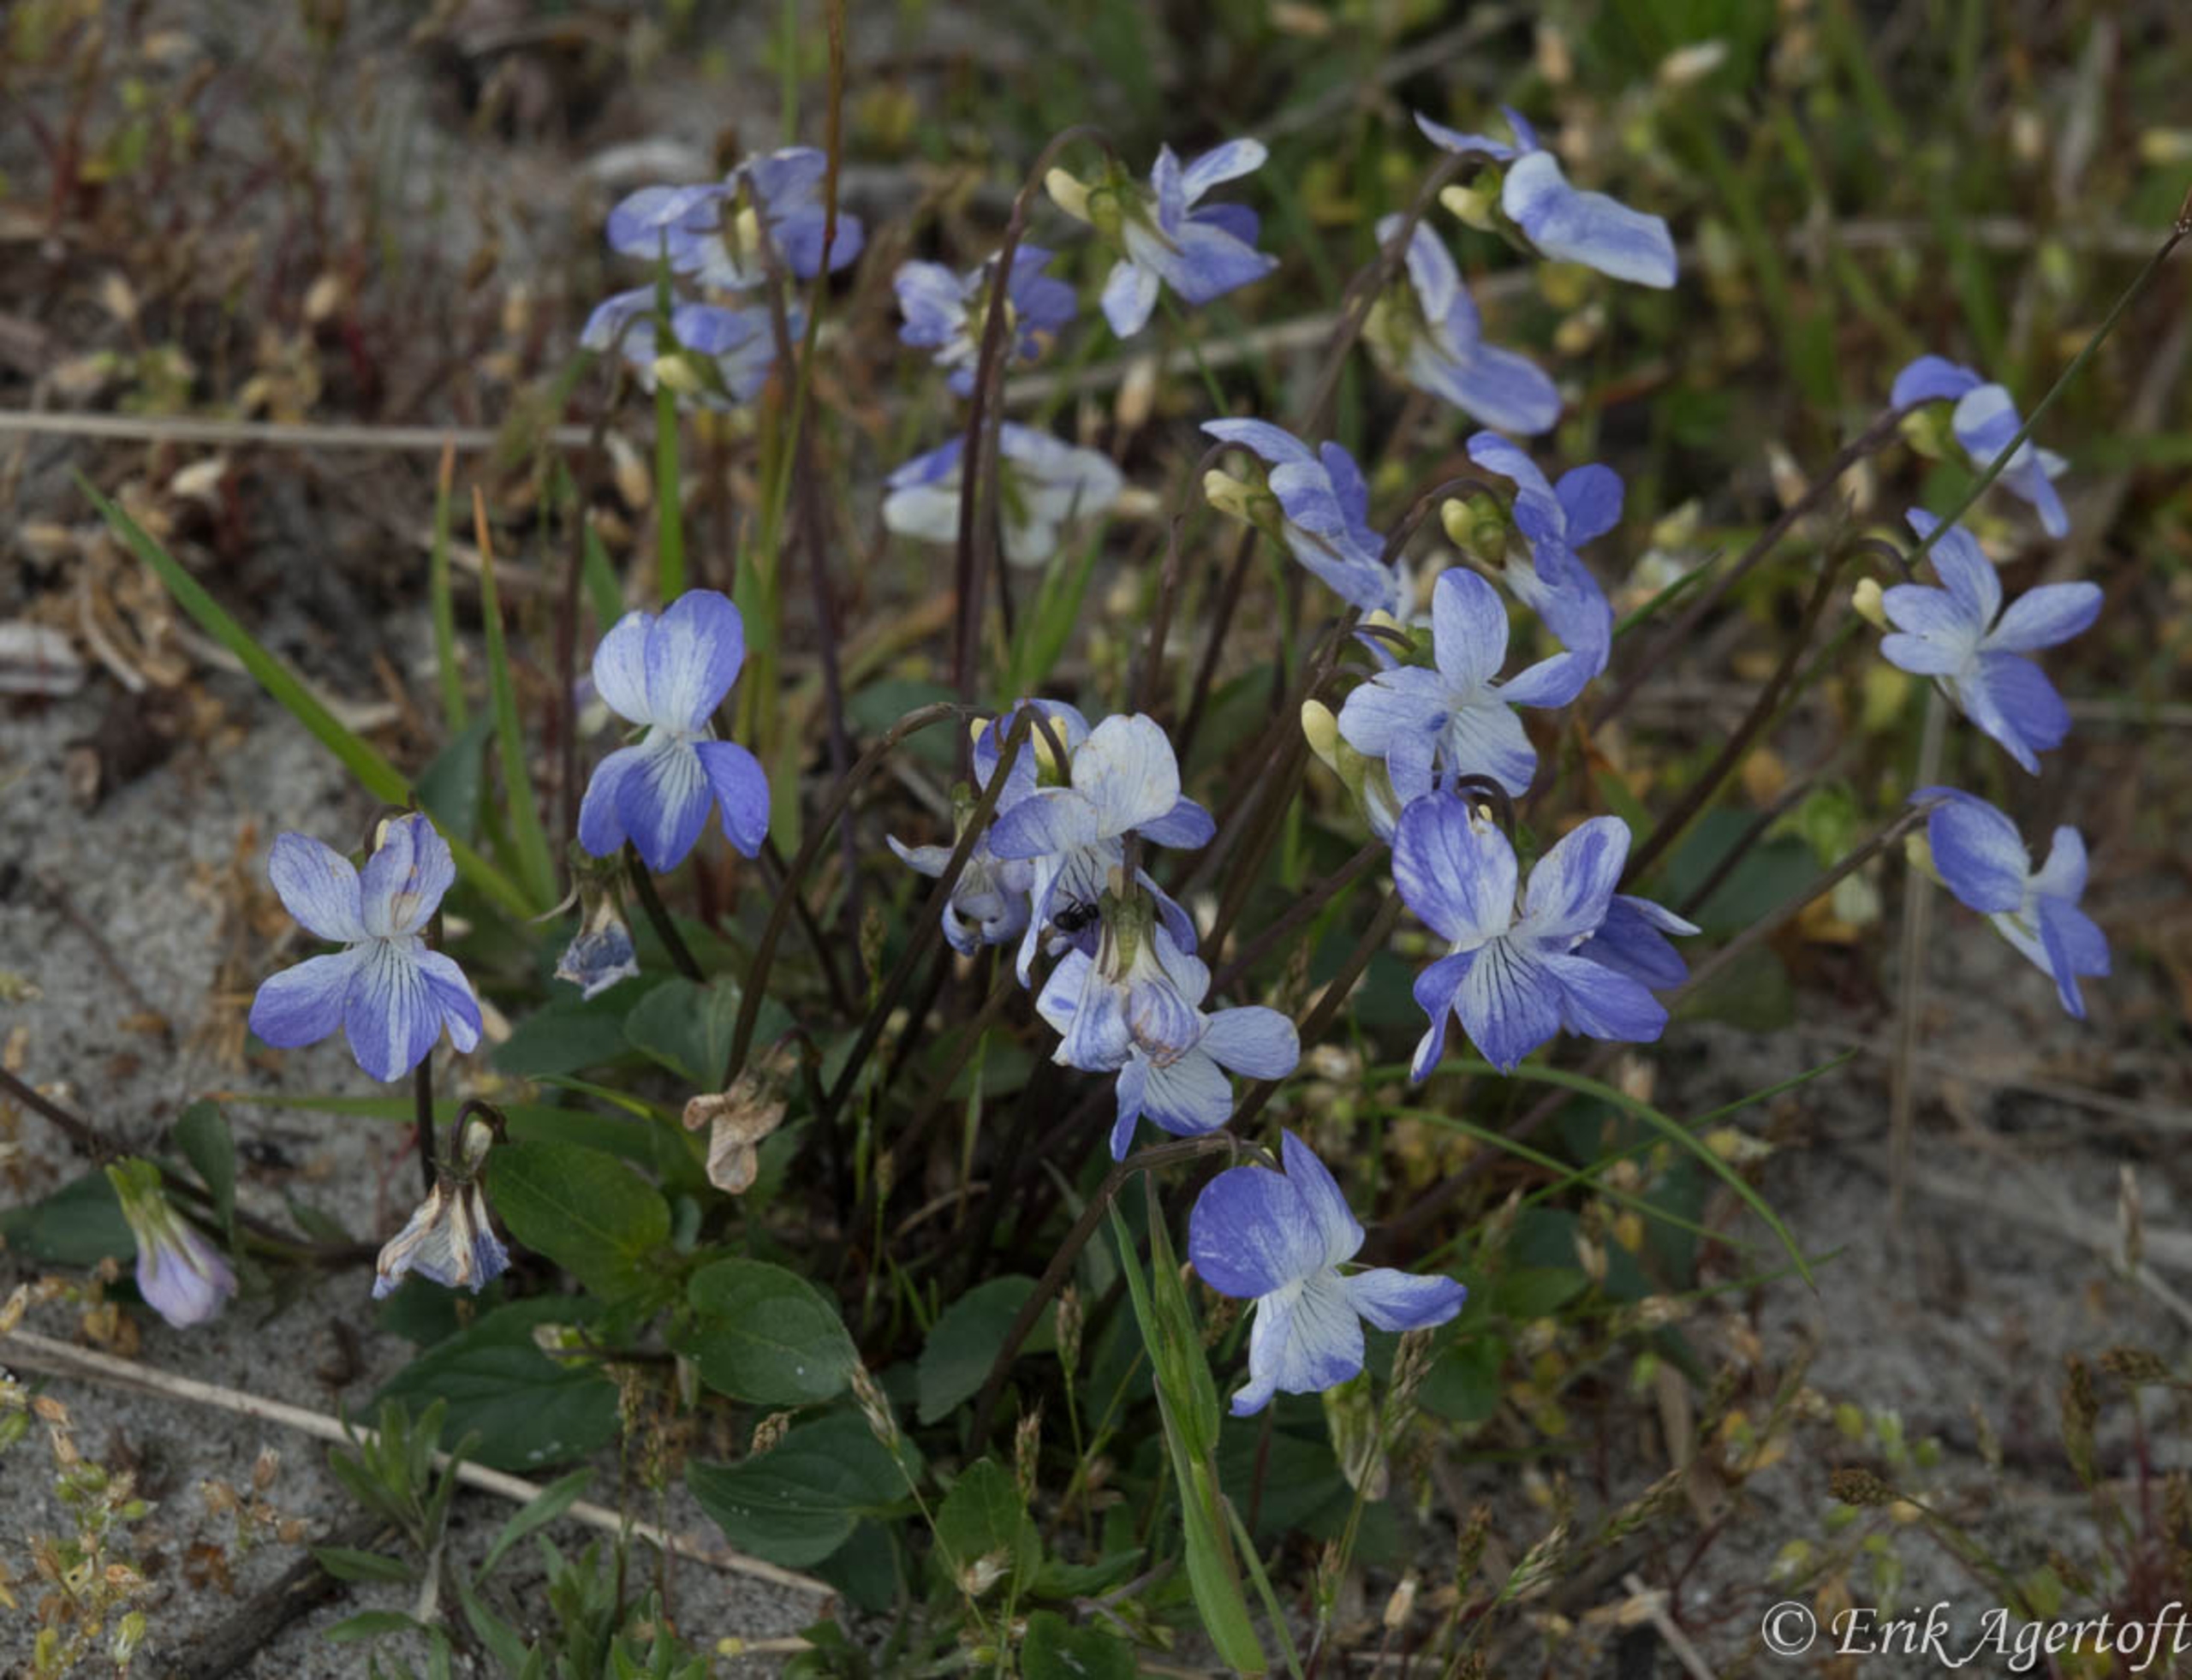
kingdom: Plantae
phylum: Tracheophyta
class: Magnoliopsida
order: Malpighiales
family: Violaceae
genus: Viola
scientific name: Viola canina
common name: Hunde-viol
